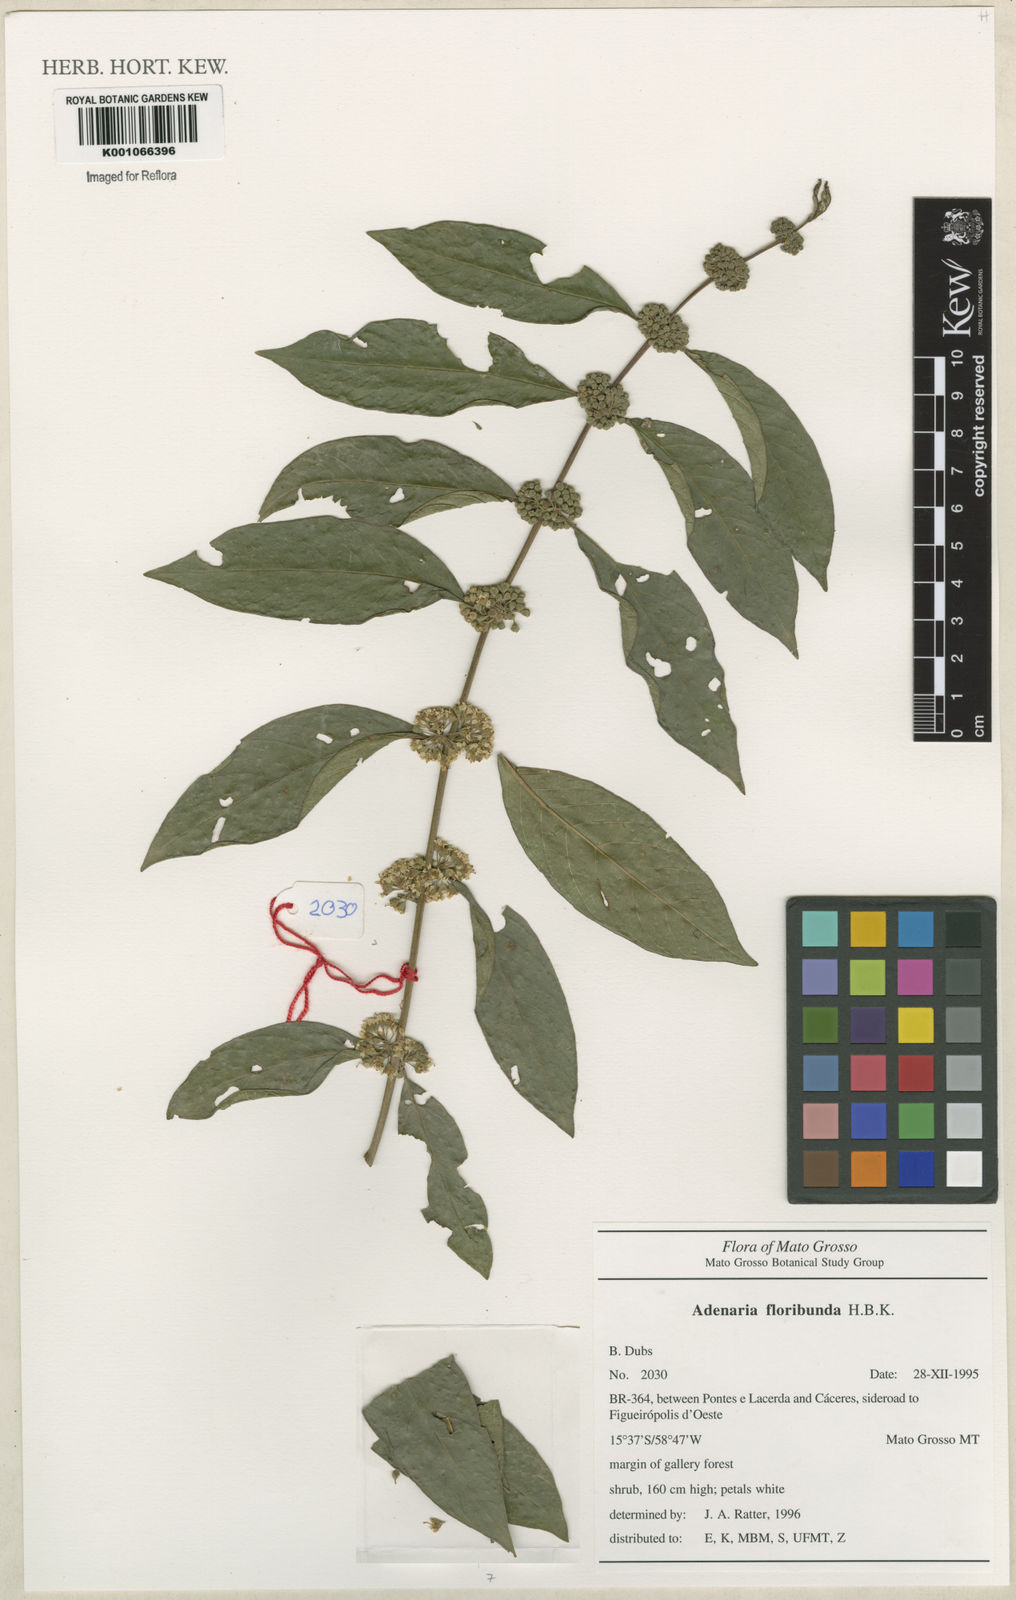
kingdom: Plantae
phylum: Tracheophyta
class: Magnoliopsida
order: Myrtales
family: Lythraceae
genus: Adenaria
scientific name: Adenaria floribunda
